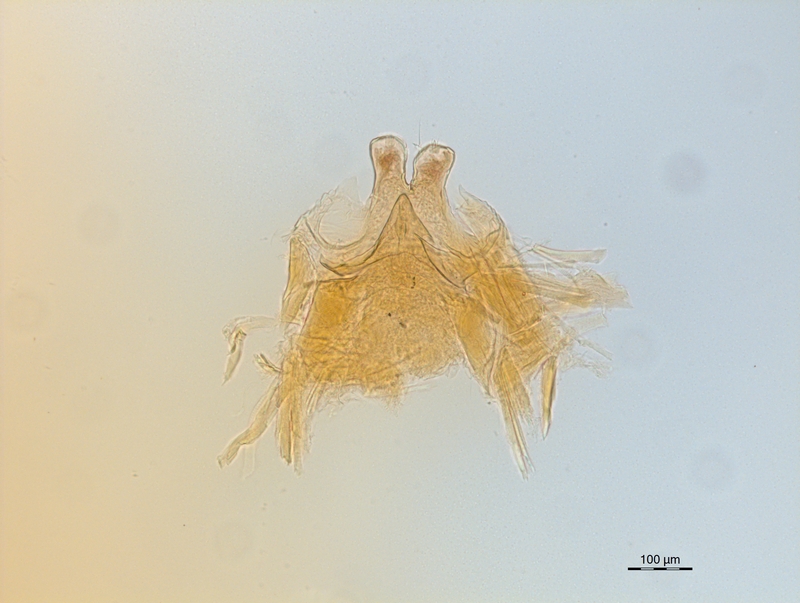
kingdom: Animalia
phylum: Arthropoda
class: Diplopoda
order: Chordeumatida
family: Craspedosomatidae
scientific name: Craspedosomatidae
